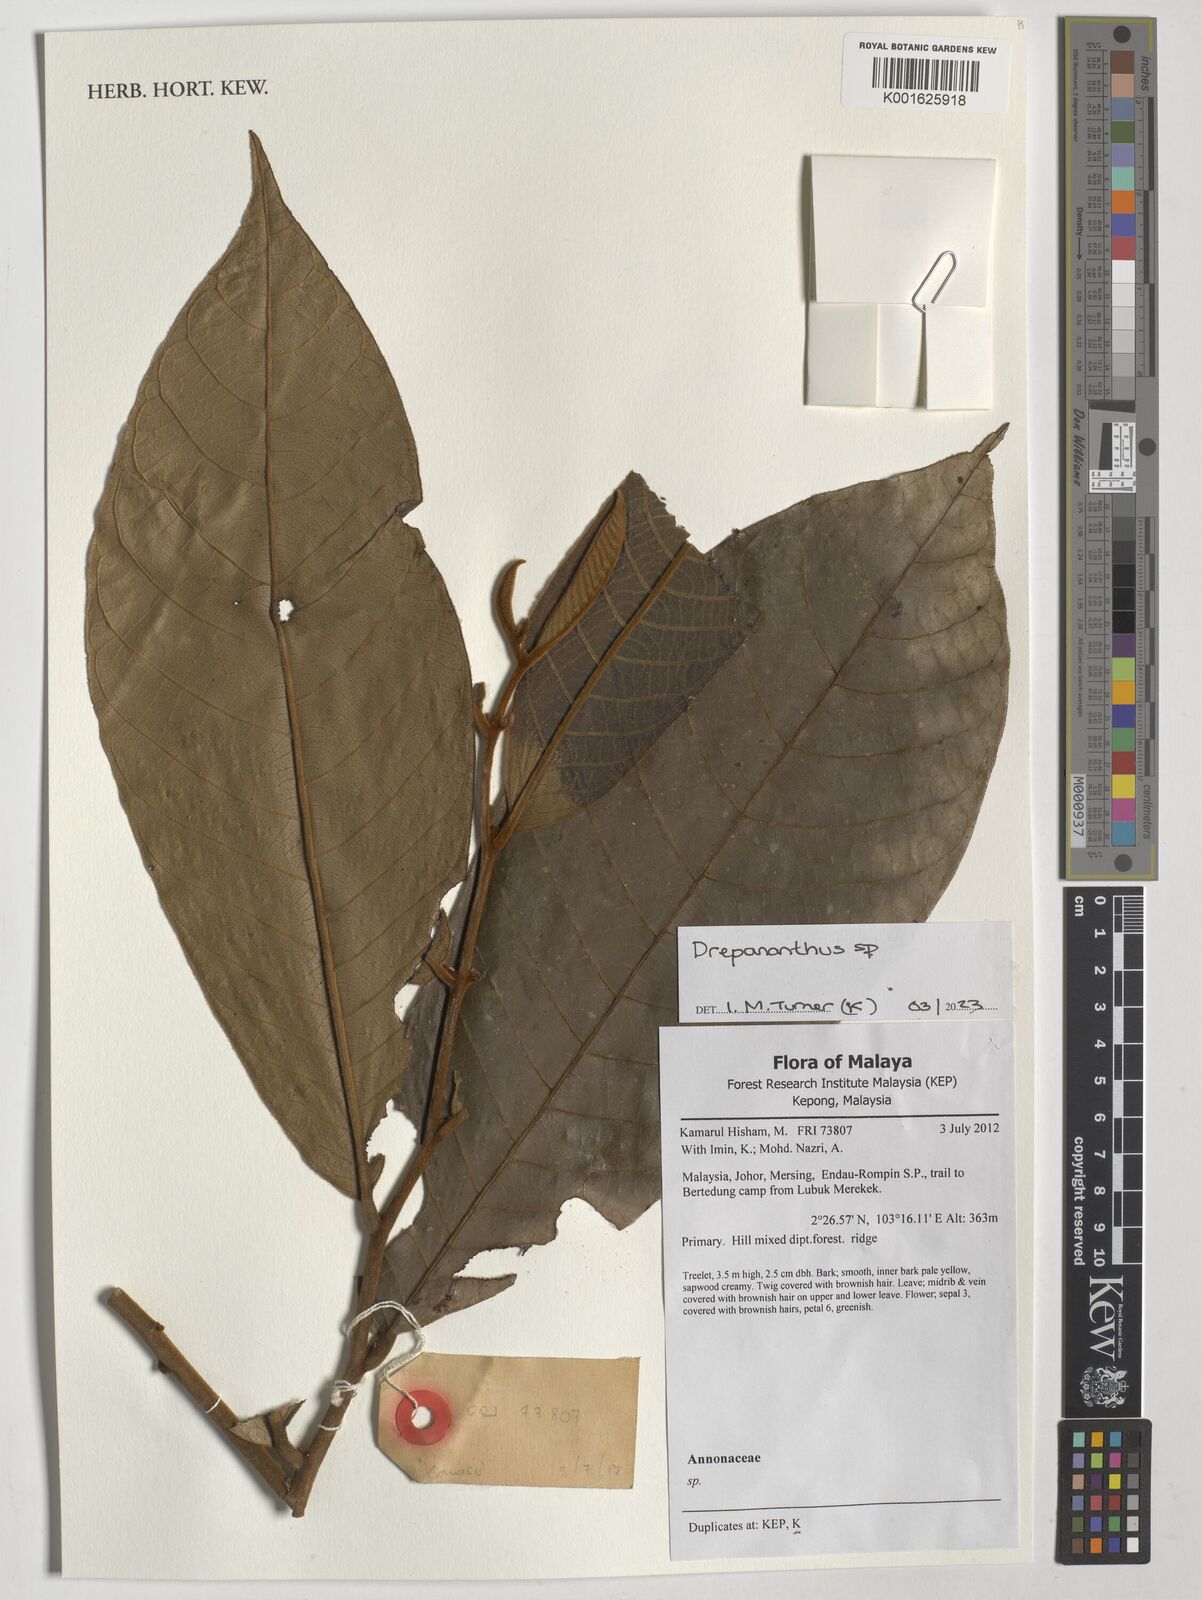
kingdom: Plantae
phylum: Tracheophyta
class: Magnoliopsida
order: Magnoliales
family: Annonaceae
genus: Drepananthus
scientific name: Drepananthus
